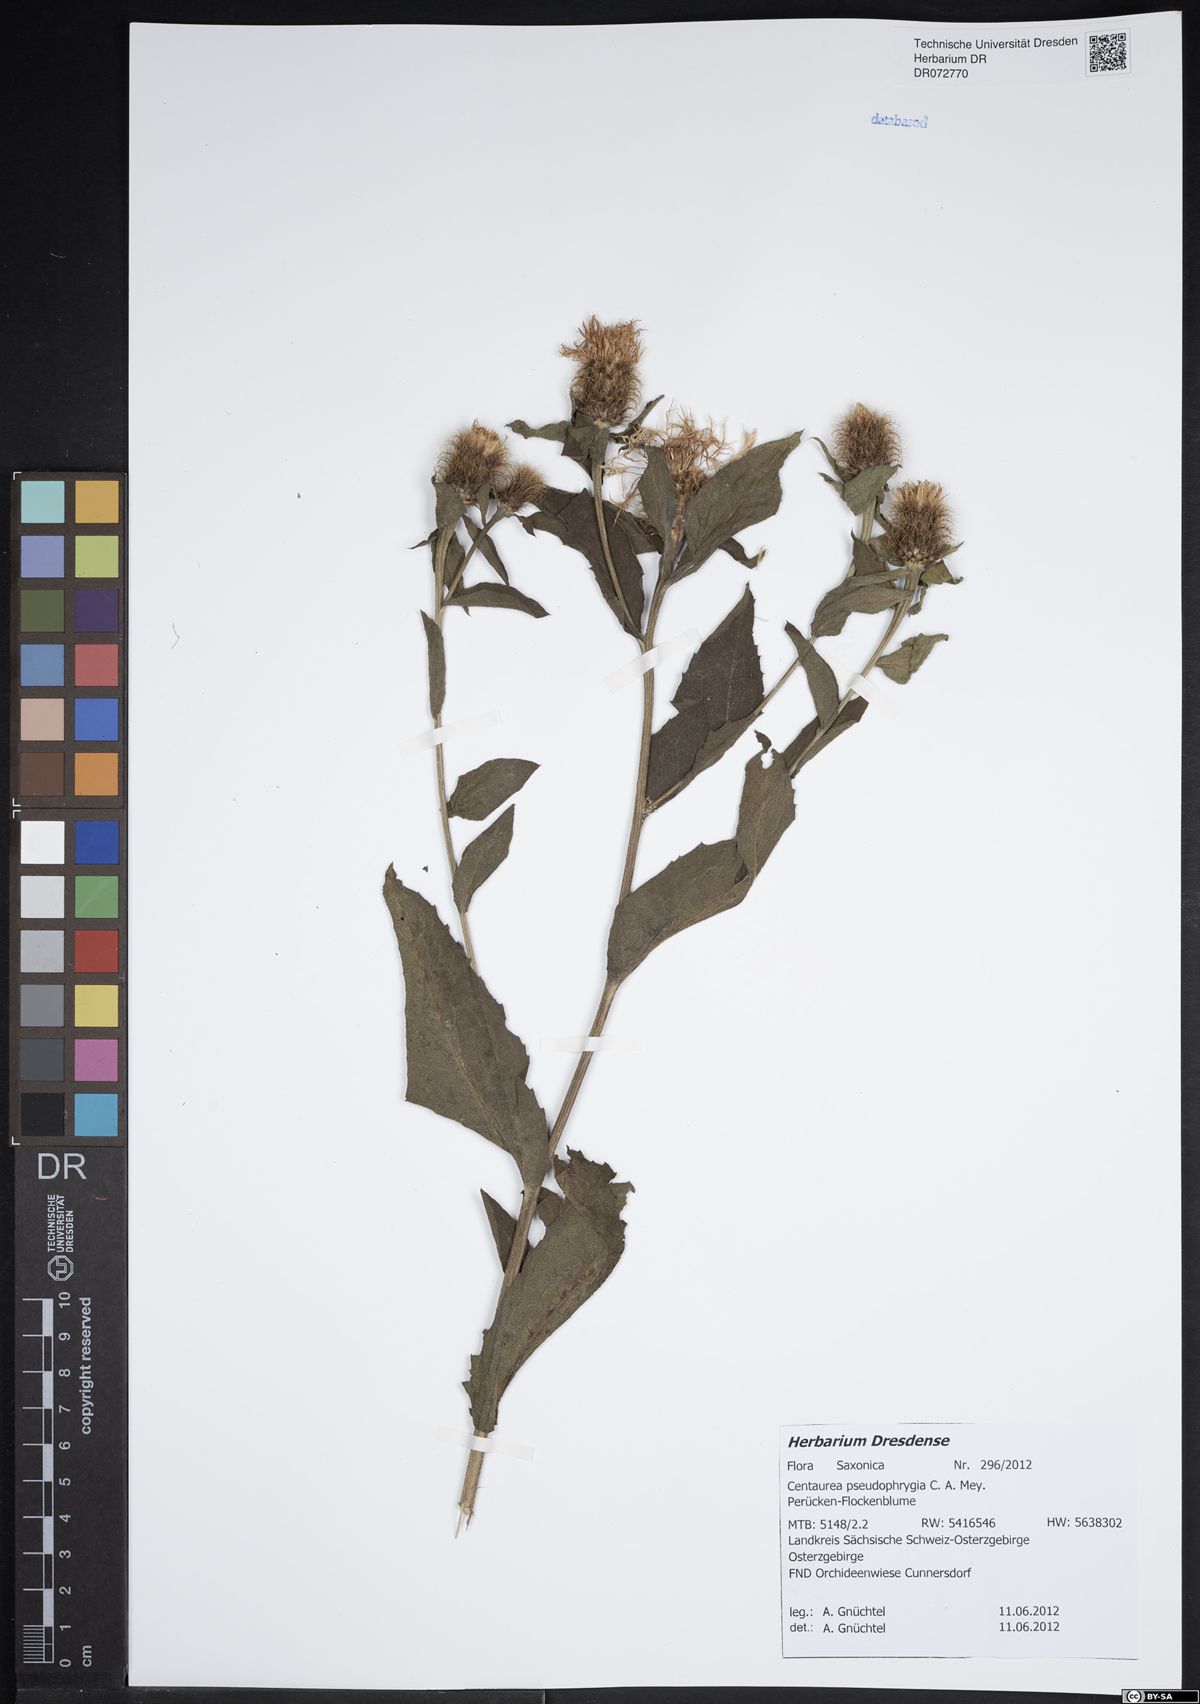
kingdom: Plantae
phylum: Tracheophyta
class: Magnoliopsida
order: Asterales
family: Asteraceae
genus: Centaurea
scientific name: Centaurea pseudophrygia
